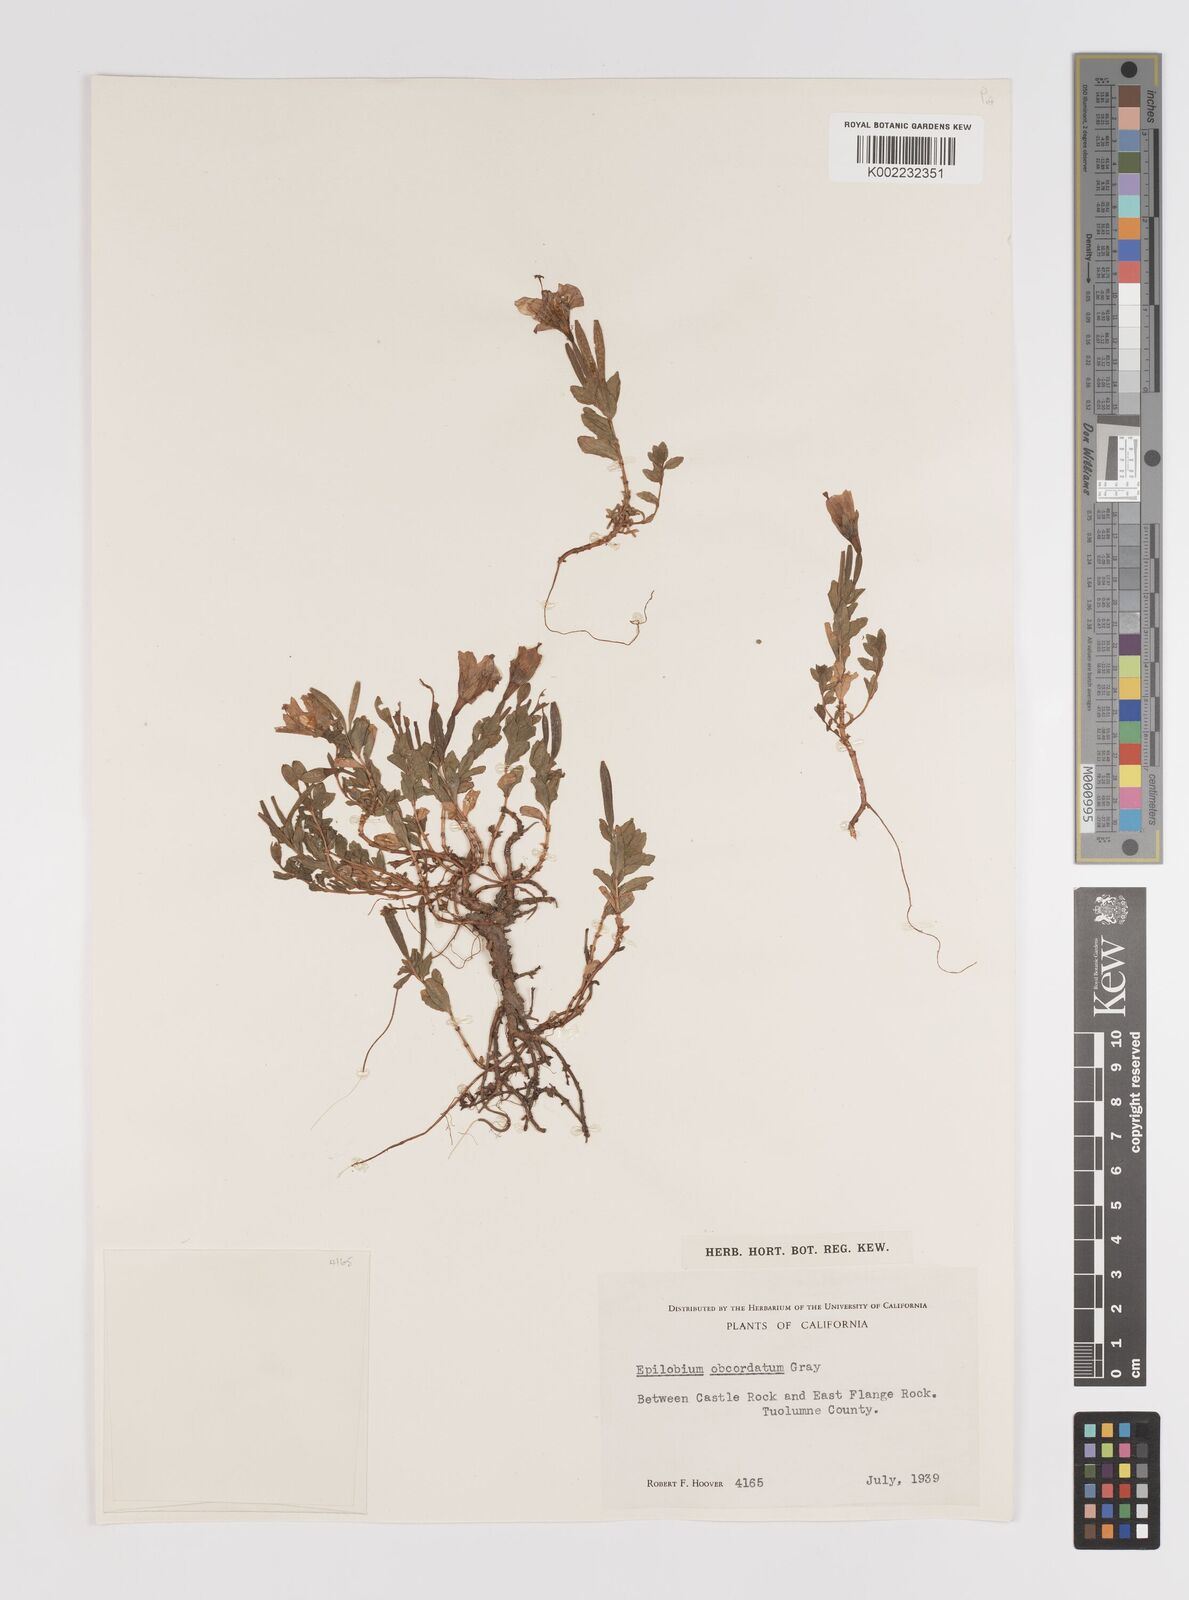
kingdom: Plantae
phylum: Tracheophyta
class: Magnoliopsida
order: Myrtales
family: Onagraceae
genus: Epilobium
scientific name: Epilobium obcordatum
